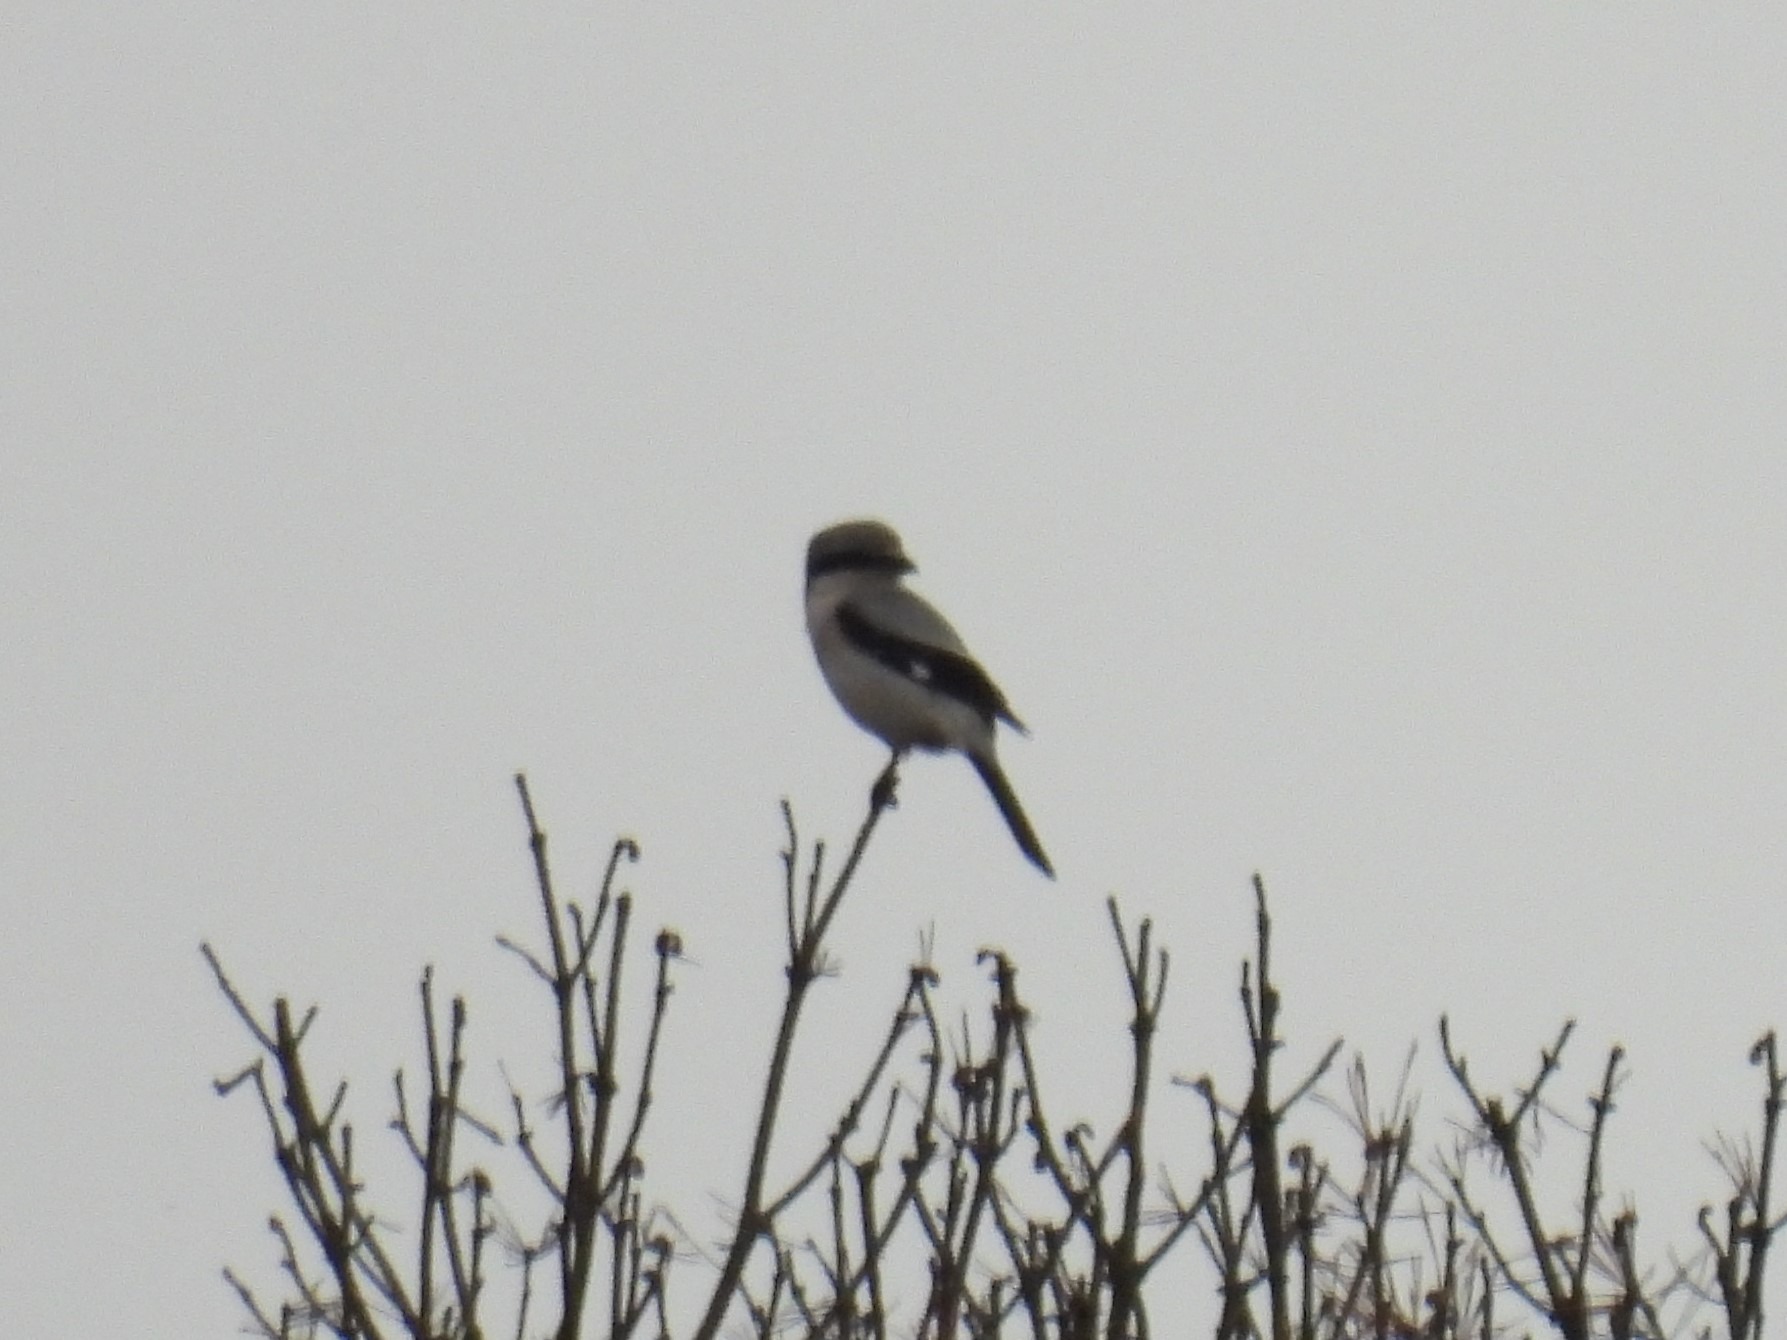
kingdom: Animalia
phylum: Chordata
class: Aves
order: Passeriformes
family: Laniidae
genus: Lanius
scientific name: Lanius excubitor
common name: Stor tornskade
